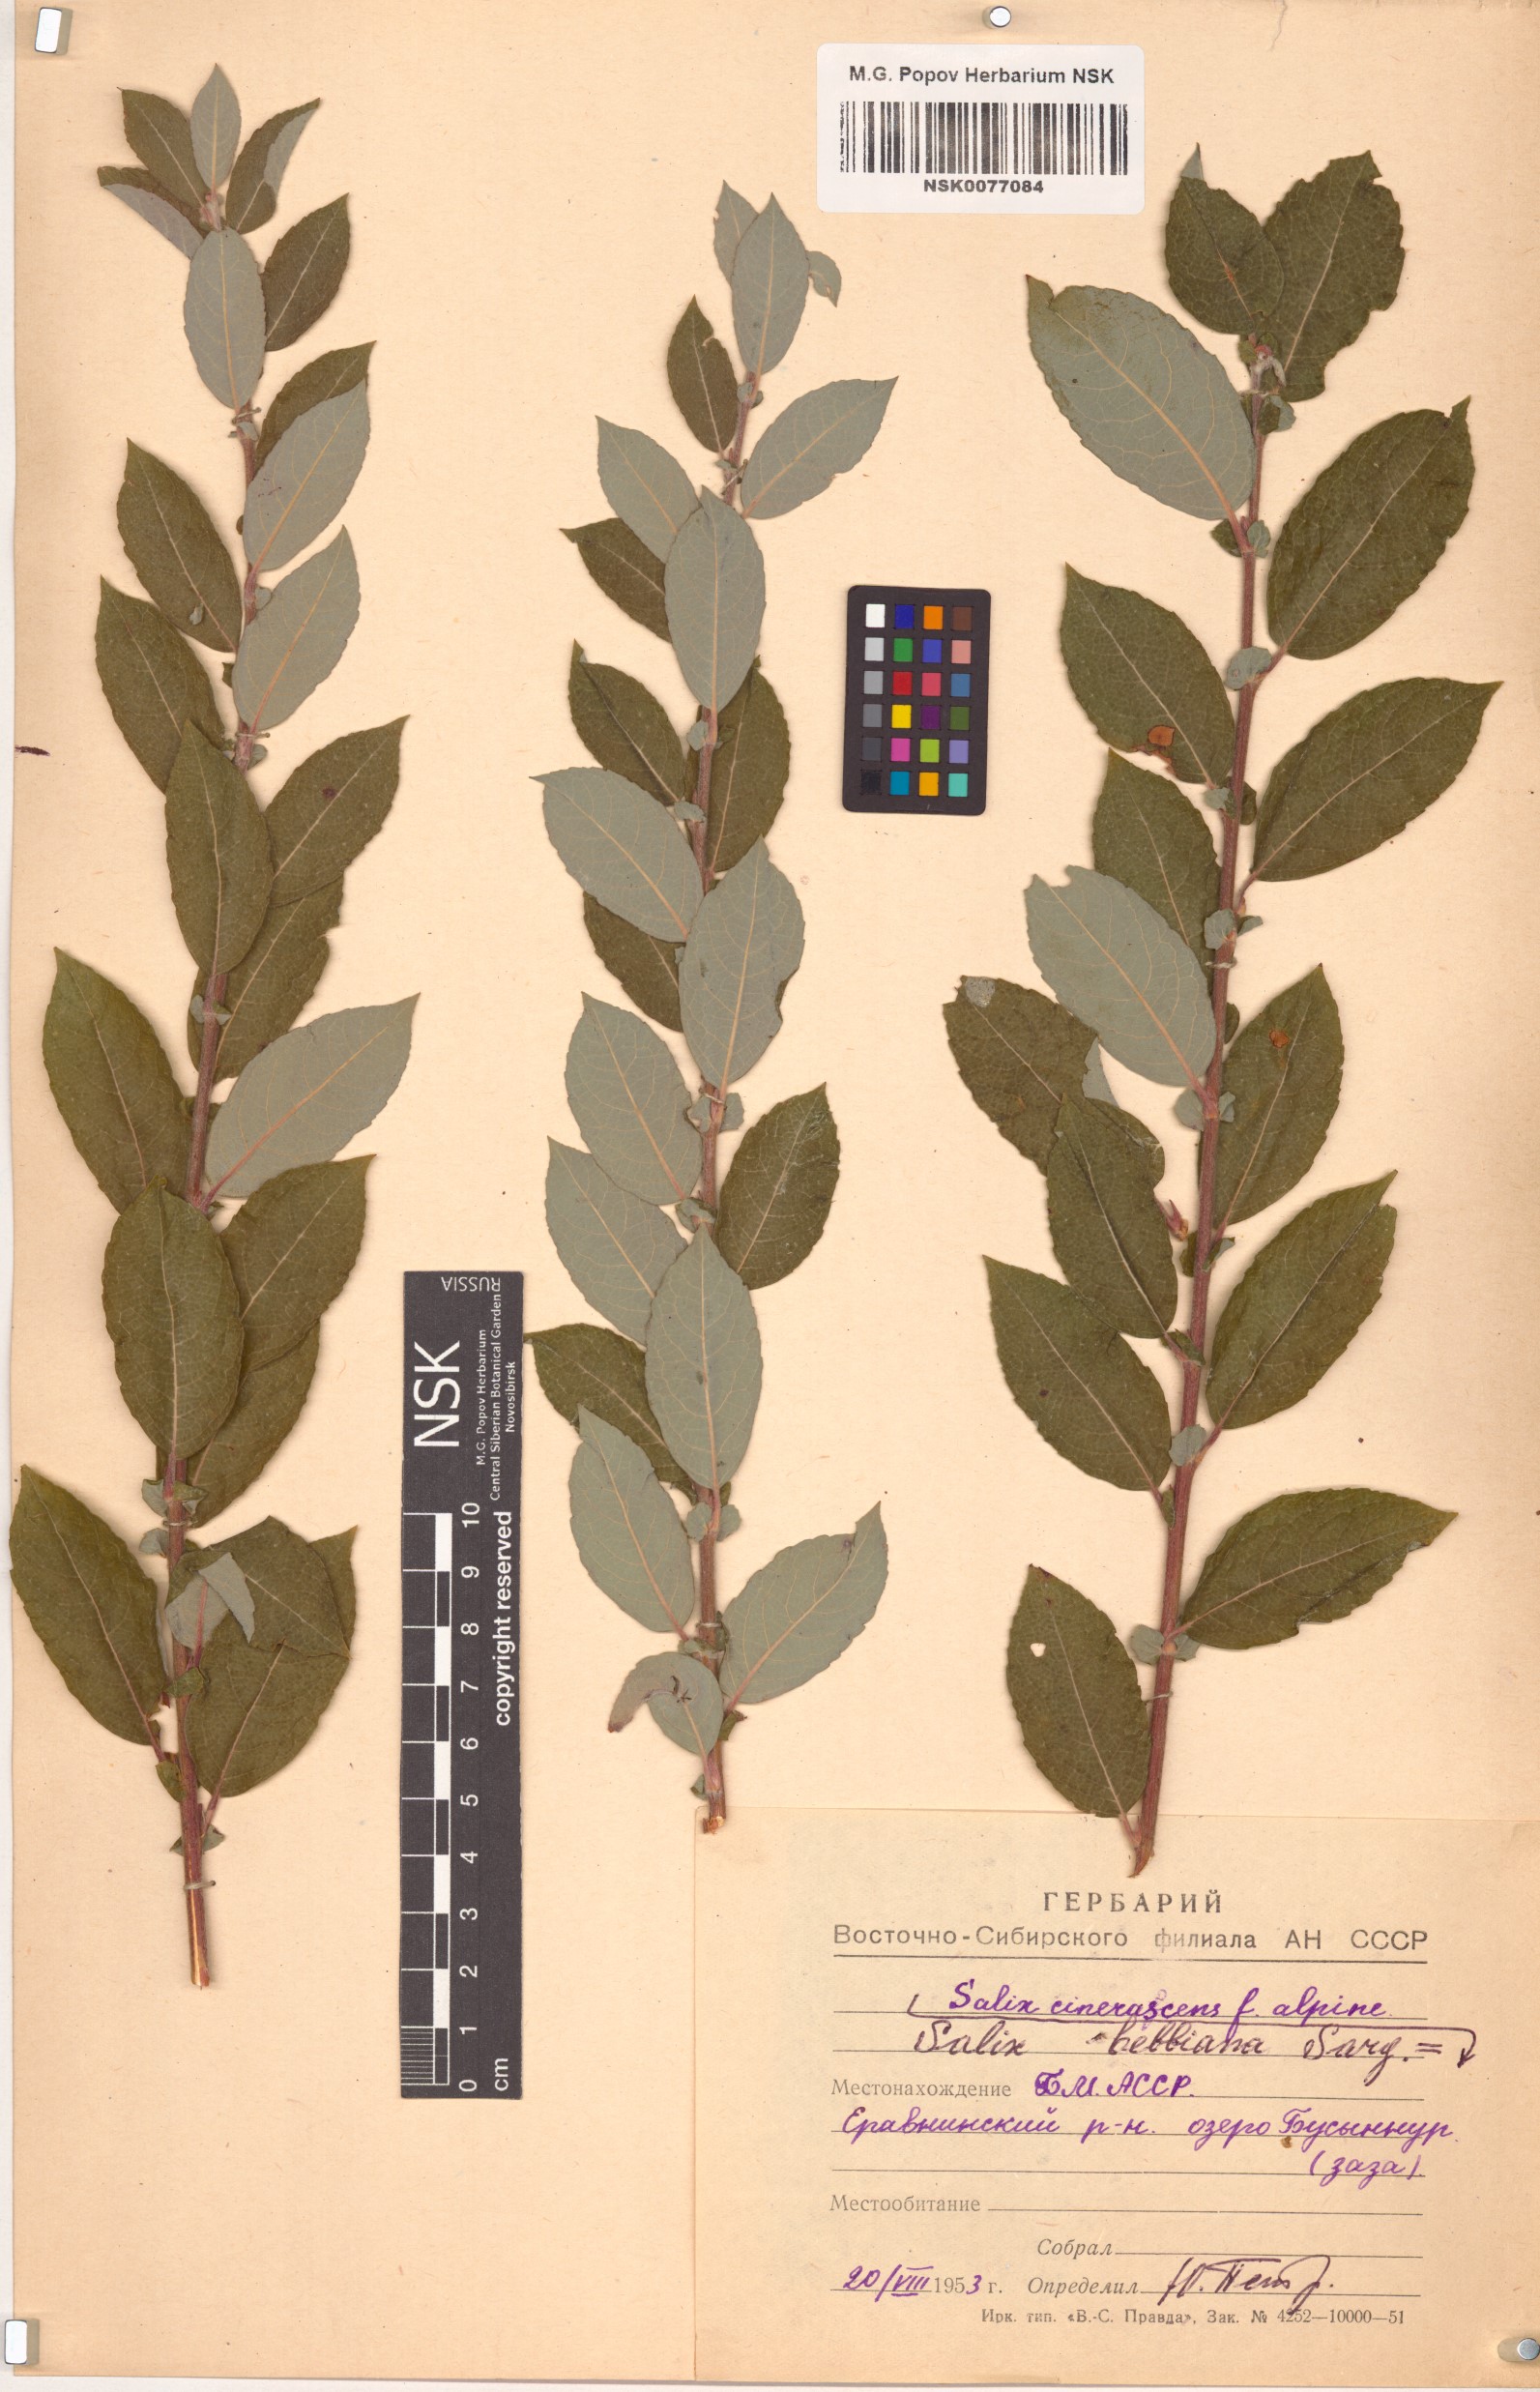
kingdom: Plantae
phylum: Tracheophyta
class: Magnoliopsida
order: Malpighiales
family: Salicaceae
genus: Salix
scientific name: Salix bebbiana
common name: Bebb's willow
